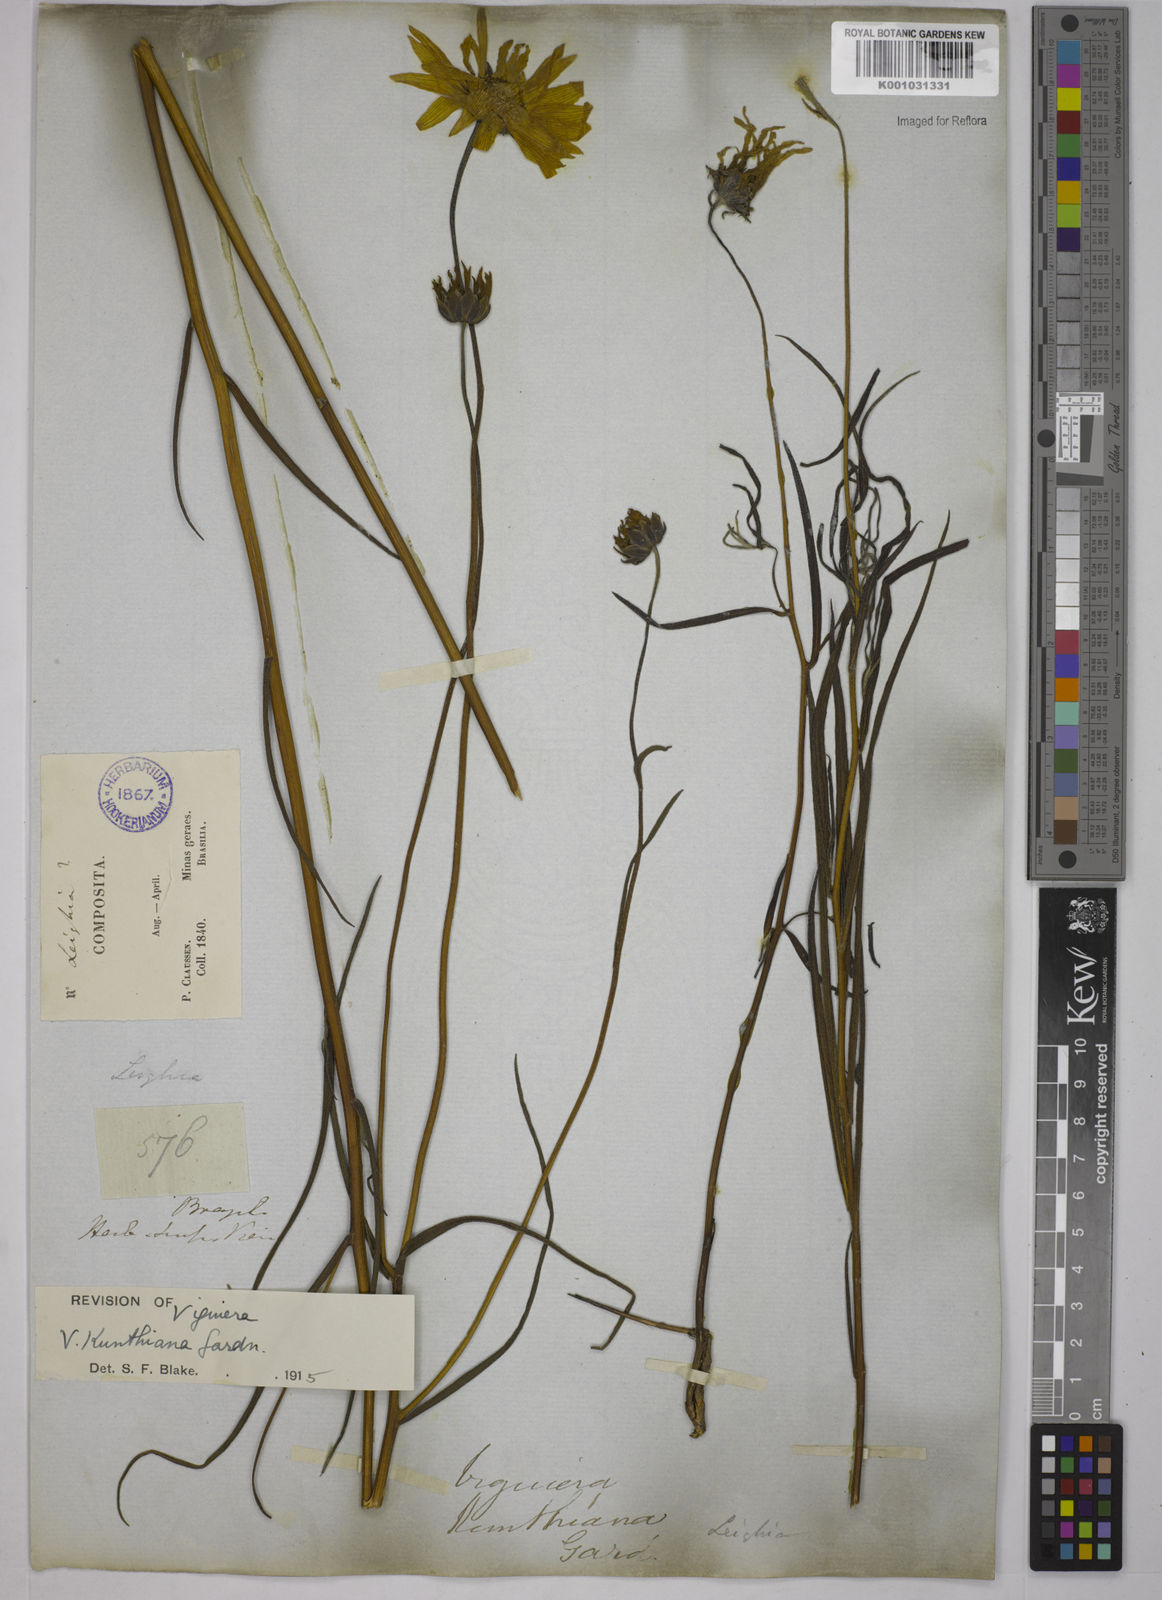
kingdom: Plantae
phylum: Tracheophyta
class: Magnoliopsida
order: Asterales
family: Asteraceae
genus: Aldama
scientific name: Aldama kunthiana
